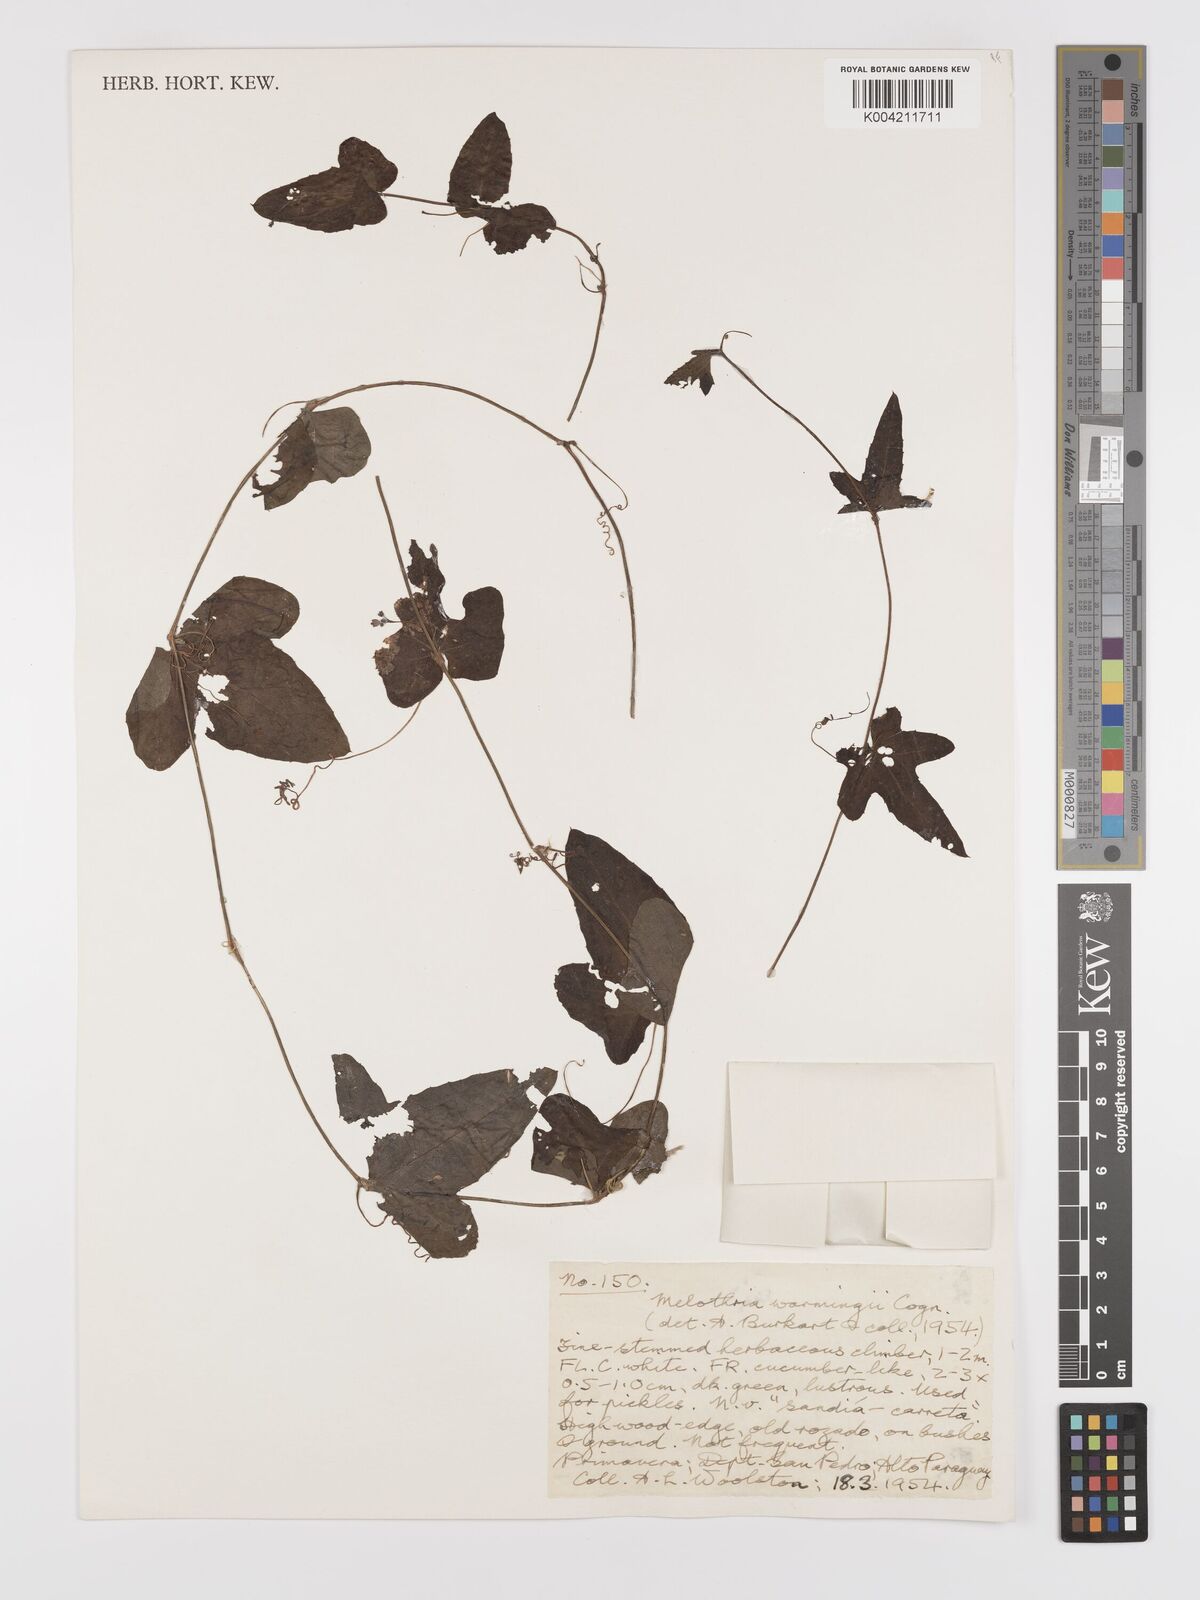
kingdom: Plantae
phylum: Tracheophyta
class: Magnoliopsida
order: Cucurbitales
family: Cucurbitaceae
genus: Melothria
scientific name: Melothria warmingii
